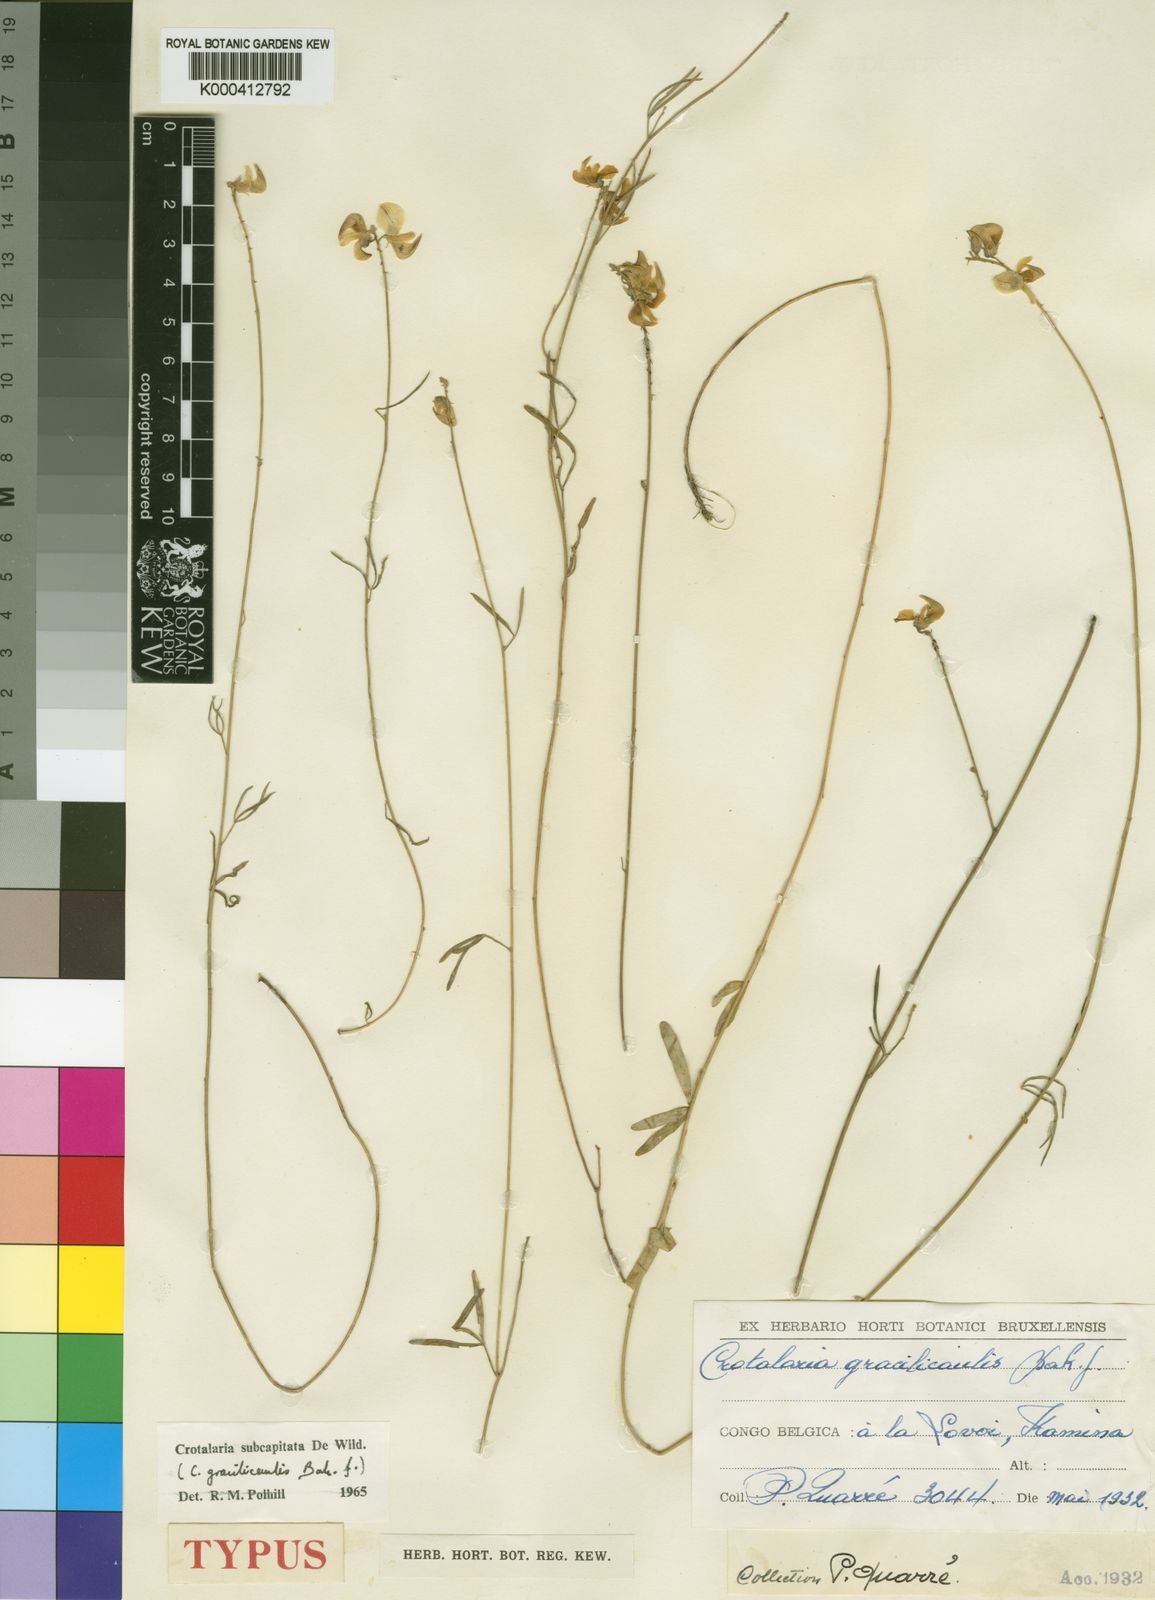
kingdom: Plantae
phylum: Tracheophyta
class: Magnoliopsida
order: Fabales
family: Fabaceae
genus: Crotalaria
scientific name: Crotalaria subcapitata
